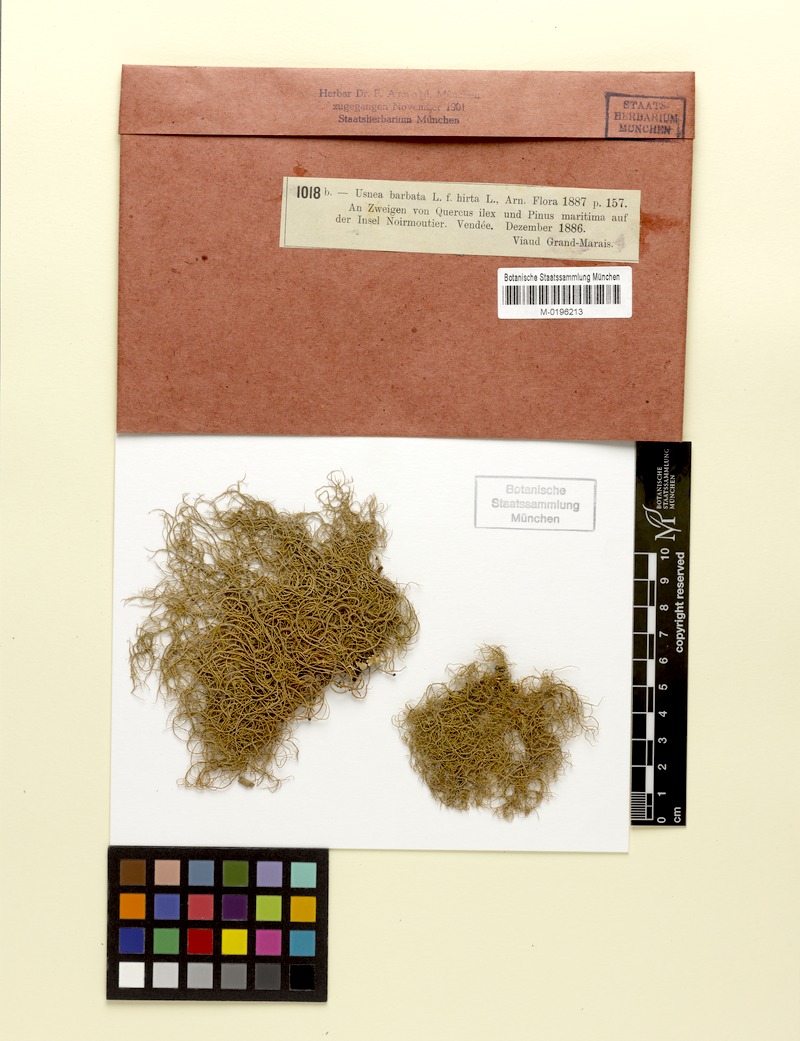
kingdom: Fungi
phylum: Ascomycota
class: Lecanoromycetes
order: Lecanorales
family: Parmeliaceae
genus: Usnea
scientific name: Usnea hirta
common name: Bristly beard lichen
